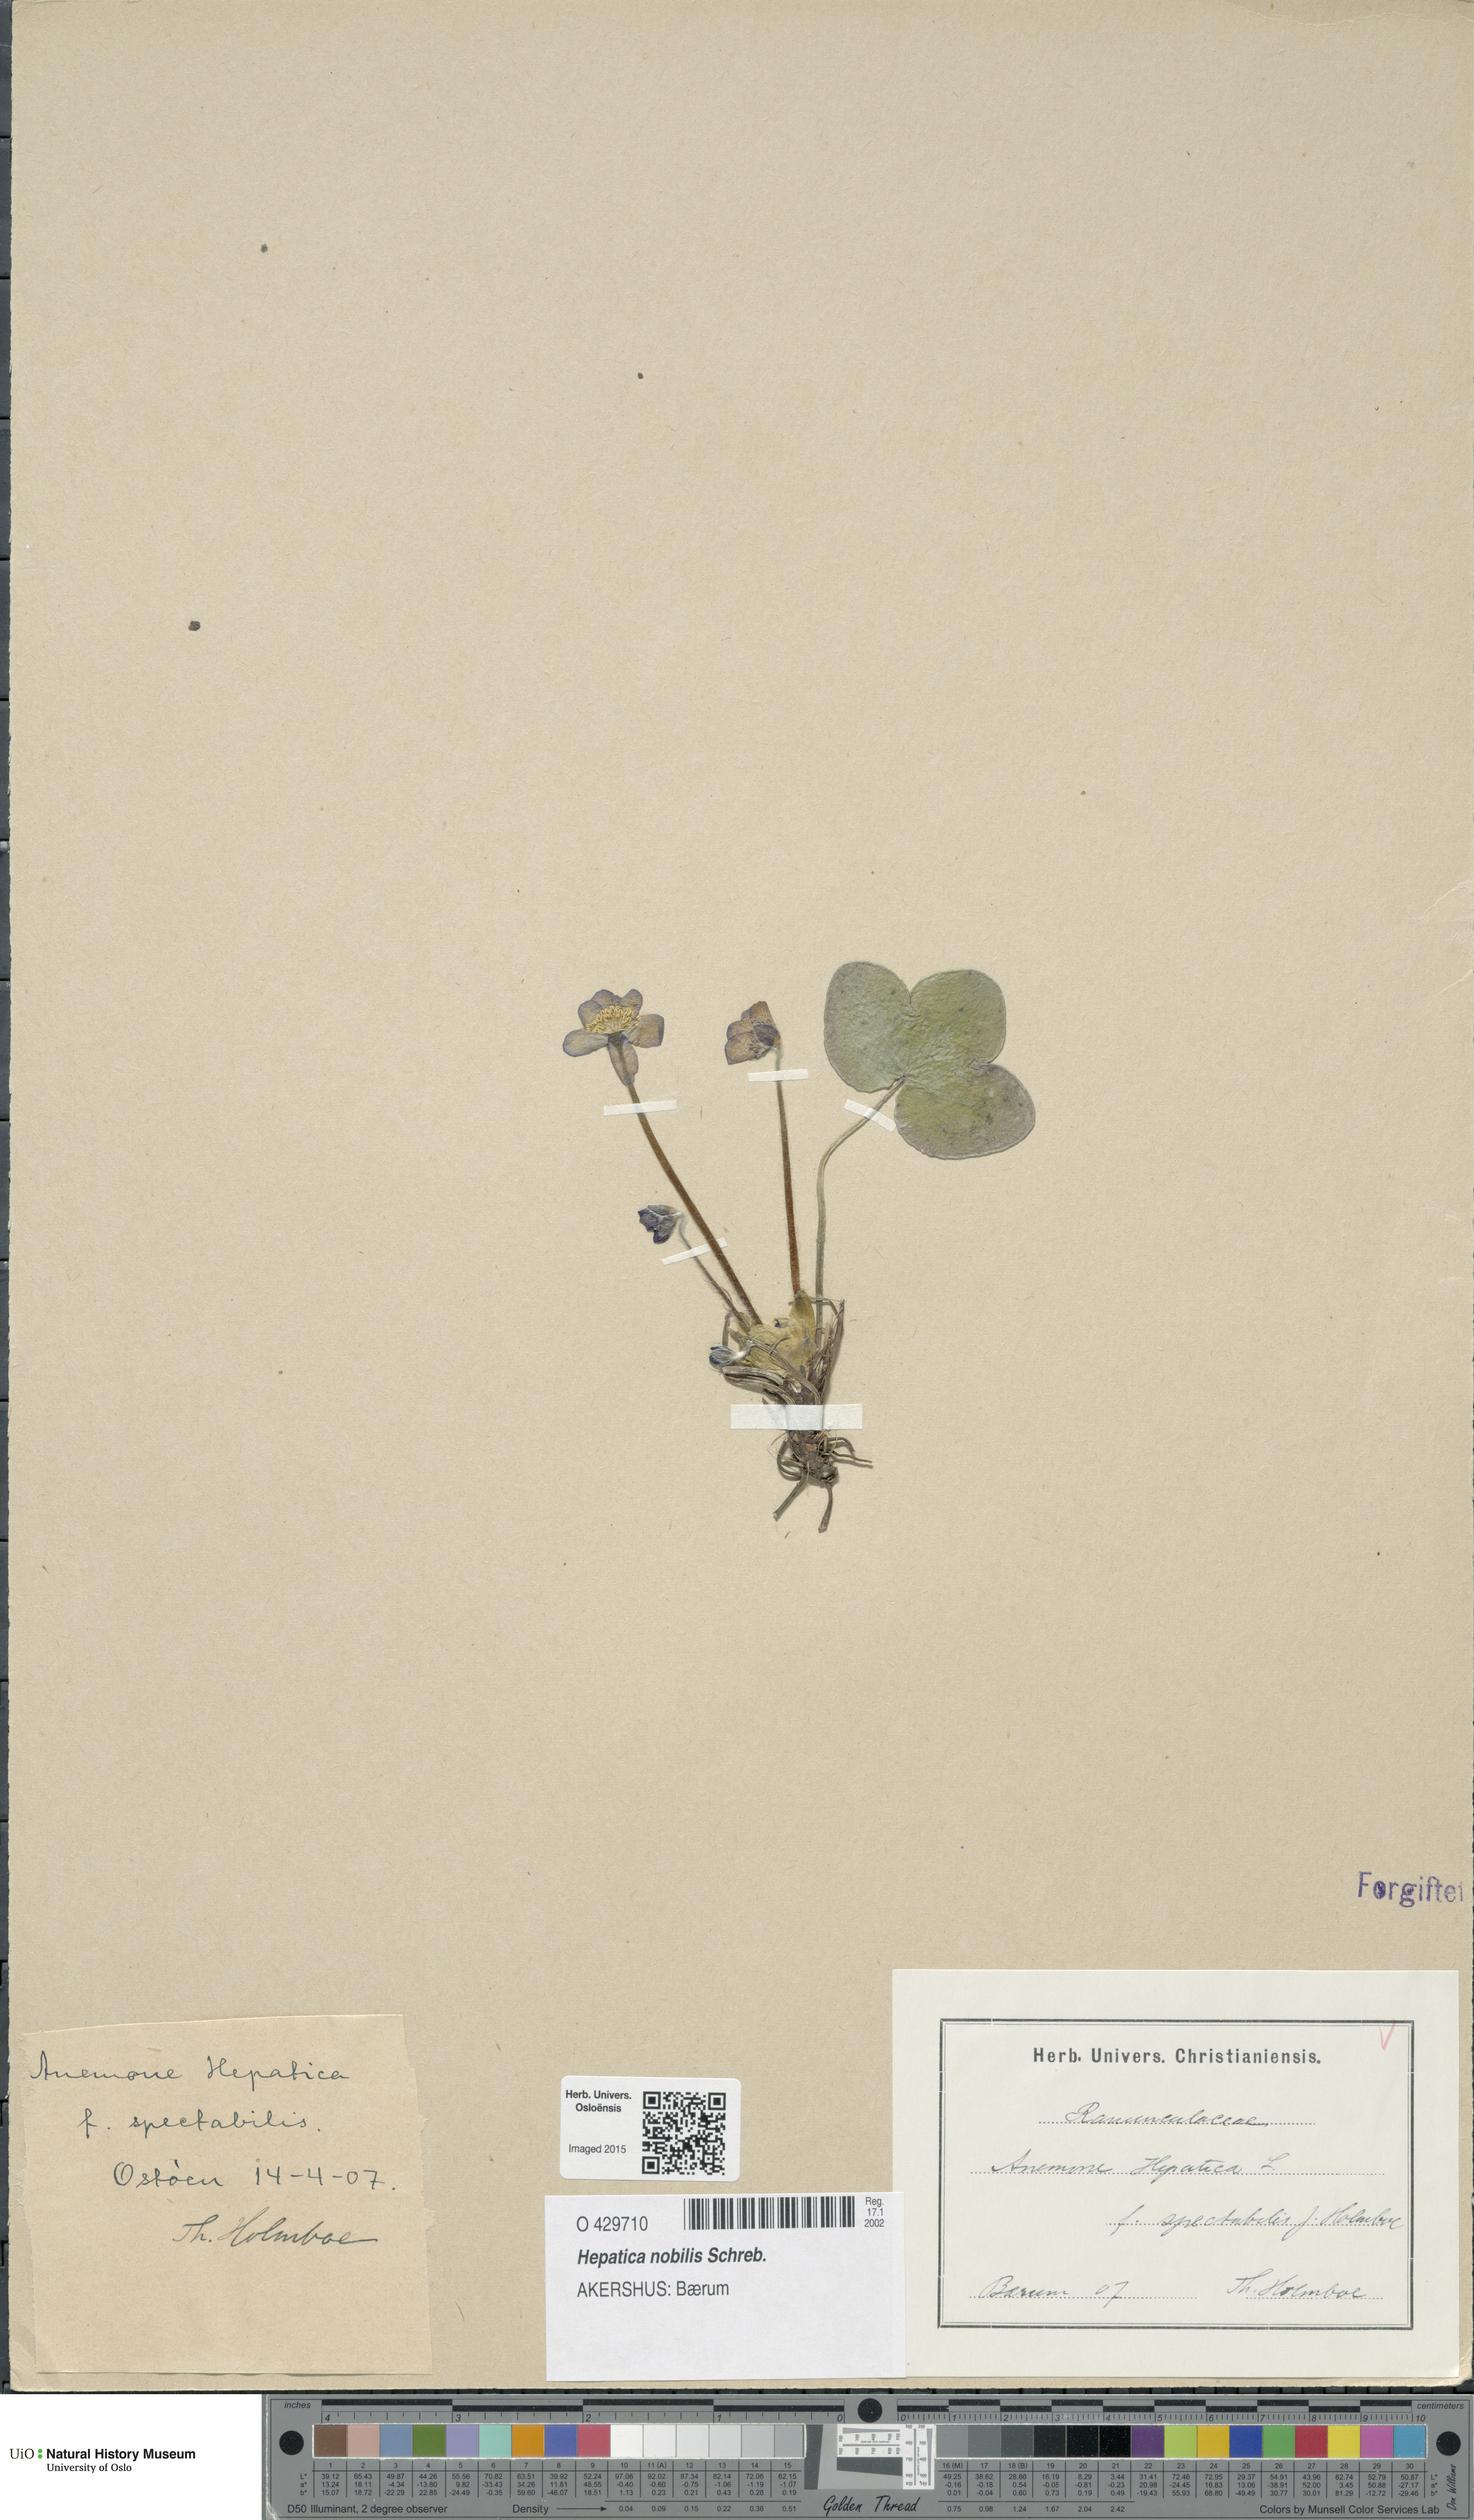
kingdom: Plantae
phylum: Tracheophyta
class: Magnoliopsida
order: Ranunculales
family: Ranunculaceae
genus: Hepatica
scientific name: Hepatica nobilis
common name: Liverleaf
